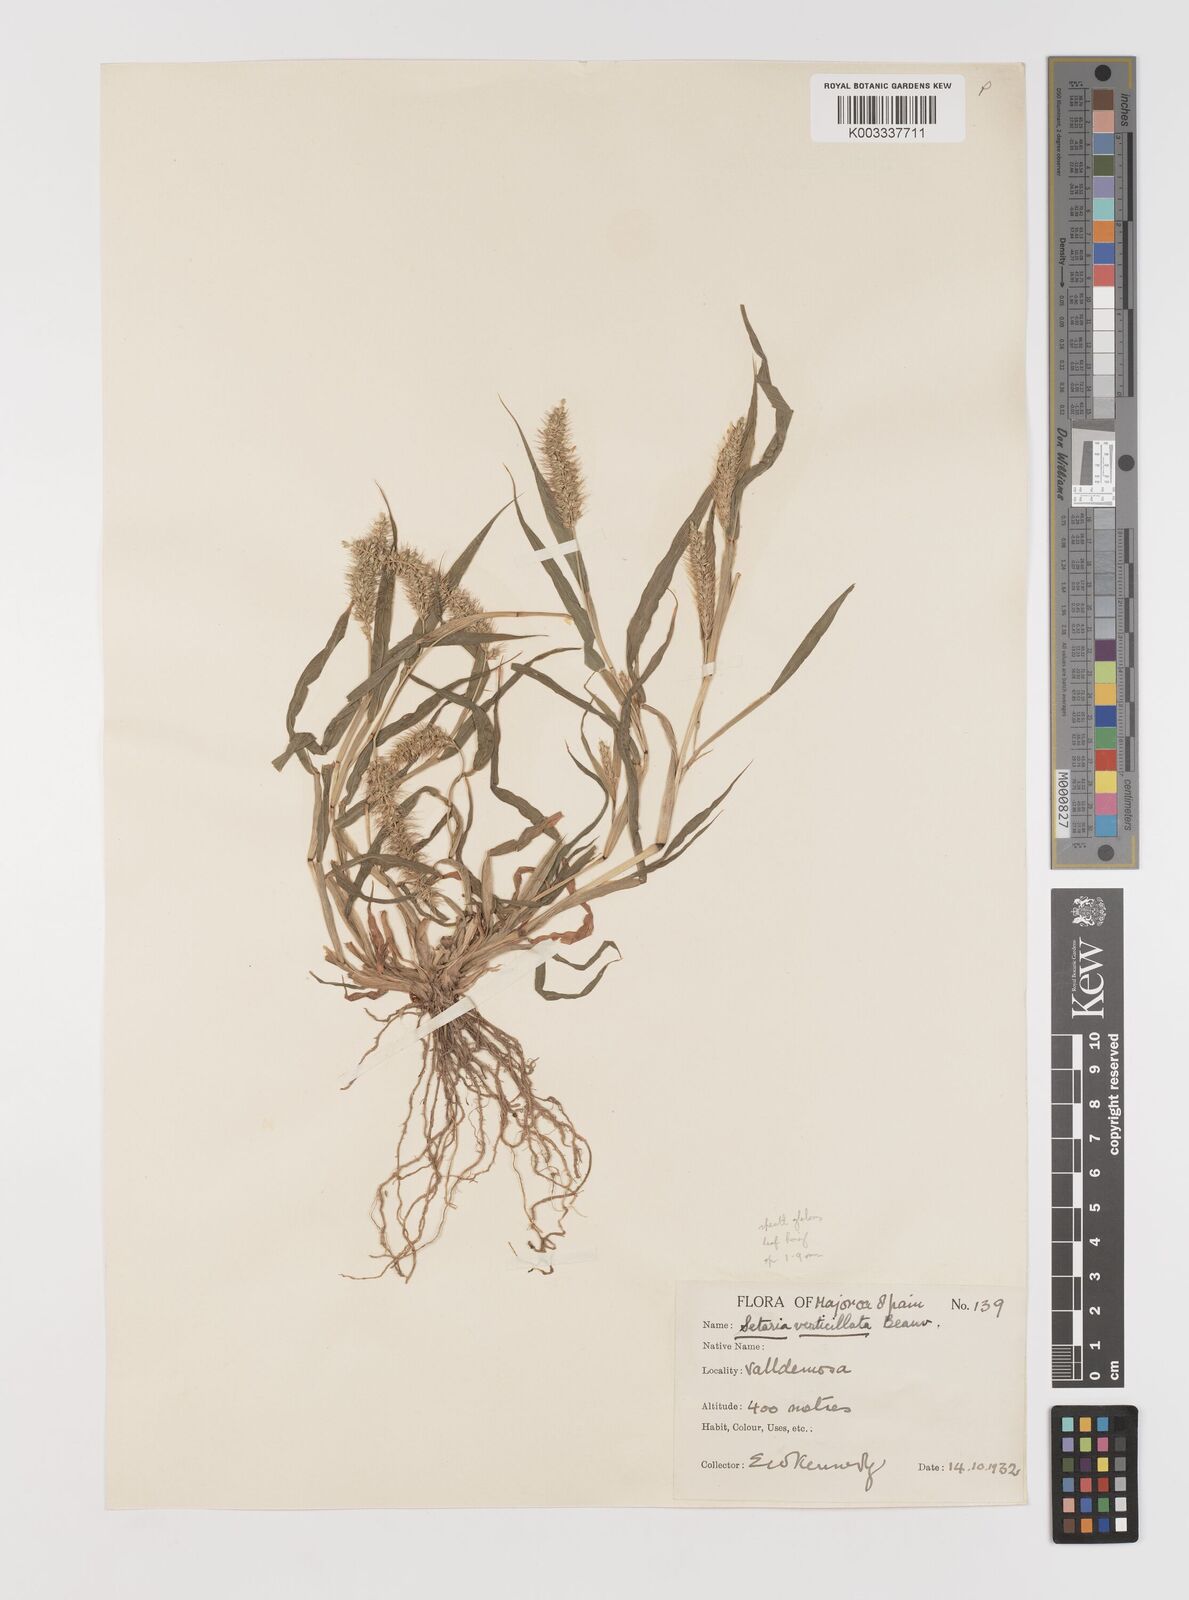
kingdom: Plantae
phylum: Tracheophyta
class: Liliopsida
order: Poales
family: Poaceae
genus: Setaria
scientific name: Setaria verticillata
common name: Hooked bristlegrass
